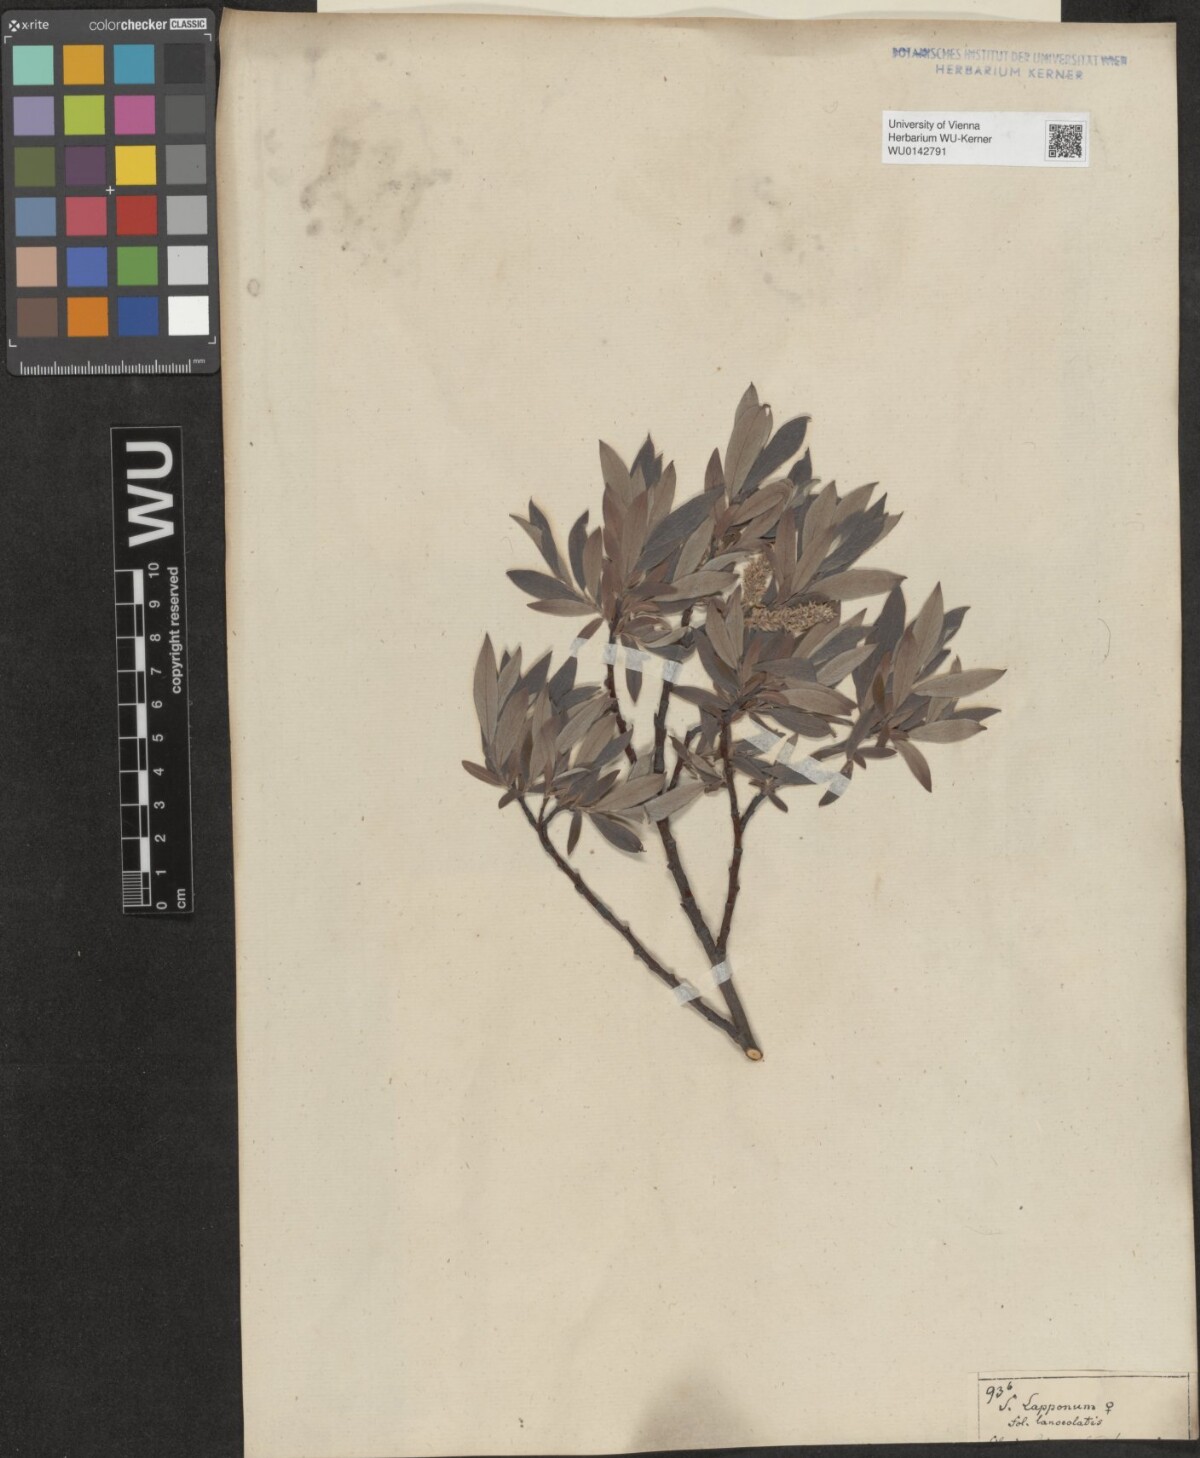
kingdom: Plantae
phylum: Tracheophyta
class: Magnoliopsida
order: Malpighiales
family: Salicaceae
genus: Salix
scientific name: Salix lapponum
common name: Downy willow
